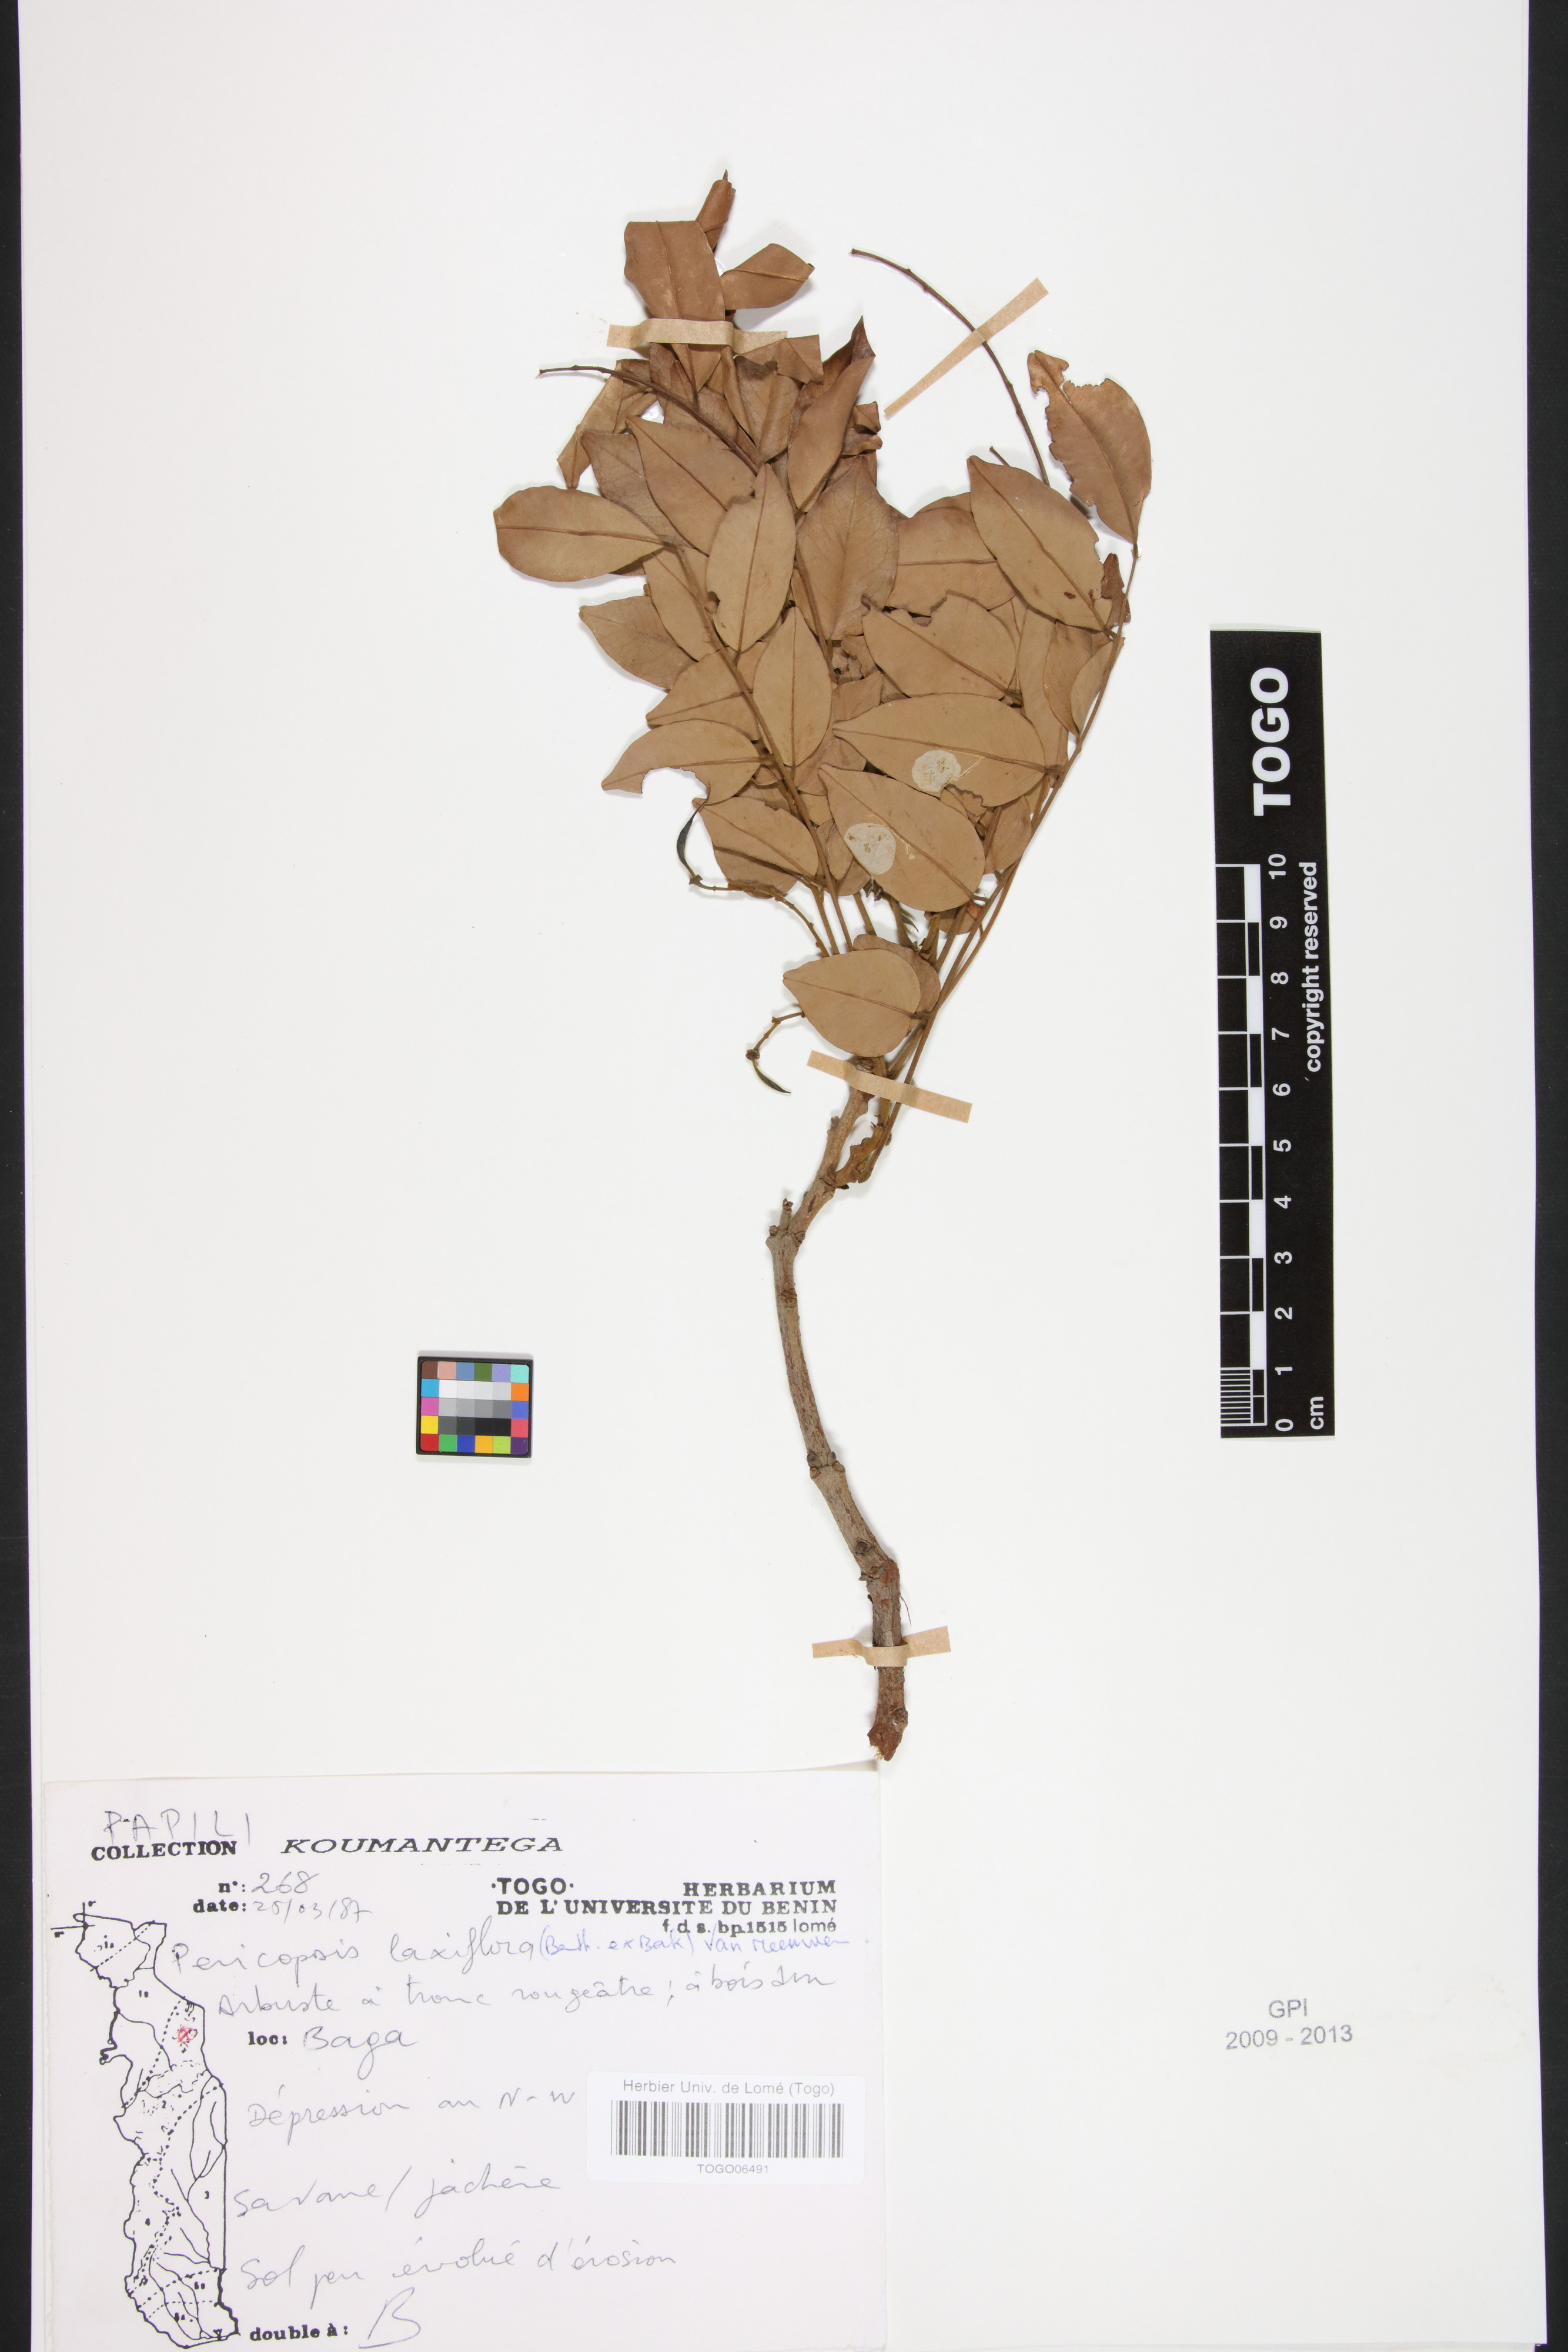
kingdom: Plantae
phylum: Tracheophyta
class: Magnoliopsida
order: Fabales
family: Fabaceae
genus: Pericopsis
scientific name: Pericopsis laxiflora
